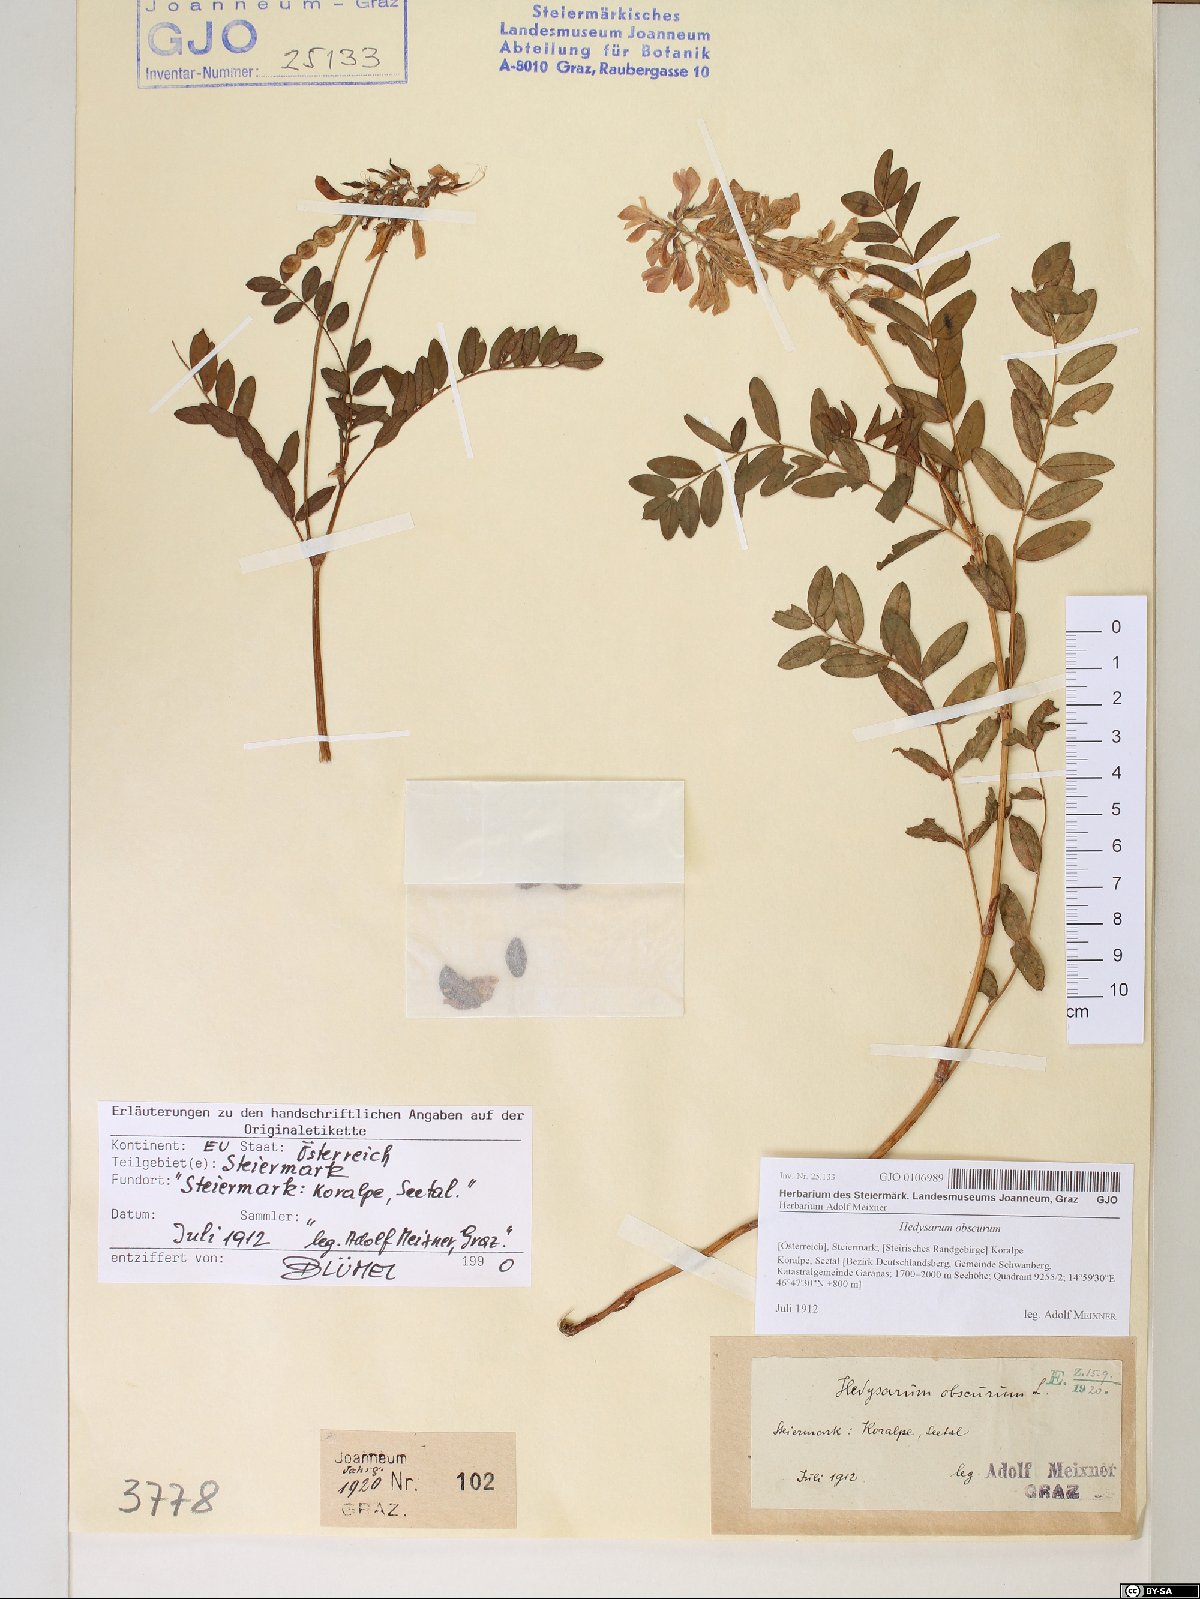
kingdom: Plantae
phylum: Tracheophyta
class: Magnoliopsida
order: Fabales
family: Fabaceae
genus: Hedysarum
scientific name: Hedysarum hedysaroides
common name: Alpine french-honeysuckle
